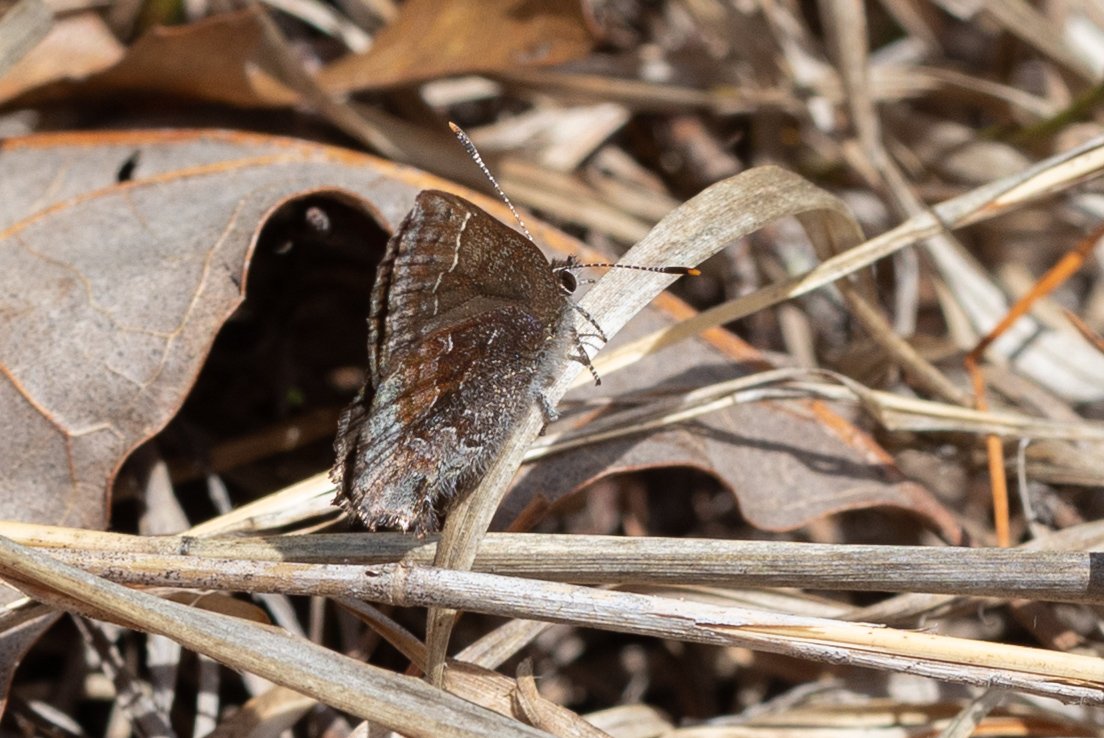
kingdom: Animalia
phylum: Arthropoda
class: Insecta
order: Lepidoptera
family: Lycaenidae
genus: Callophrys
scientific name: Callophrys polios
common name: Hoary Elfin
